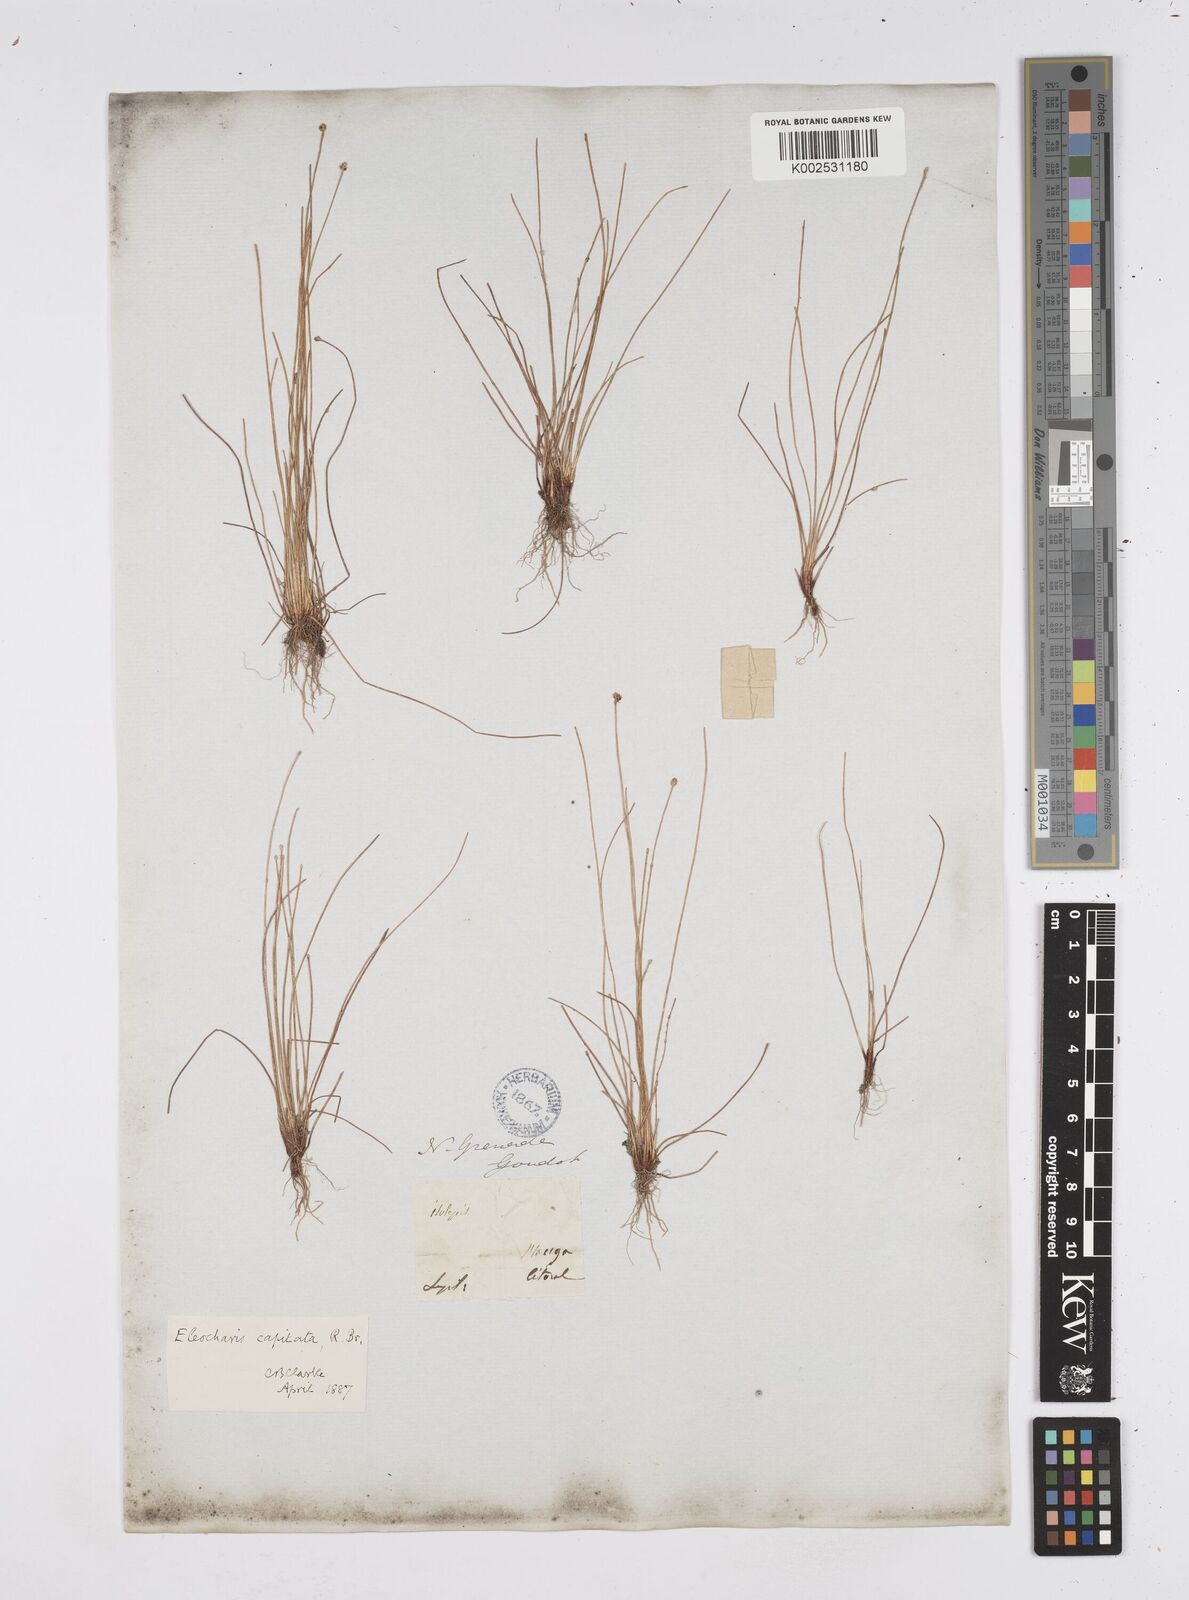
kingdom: Plantae
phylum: Tracheophyta
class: Liliopsida
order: Poales
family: Cyperaceae
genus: Eleocharis
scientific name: Eleocharis geniculata
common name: Canada spikesedge
